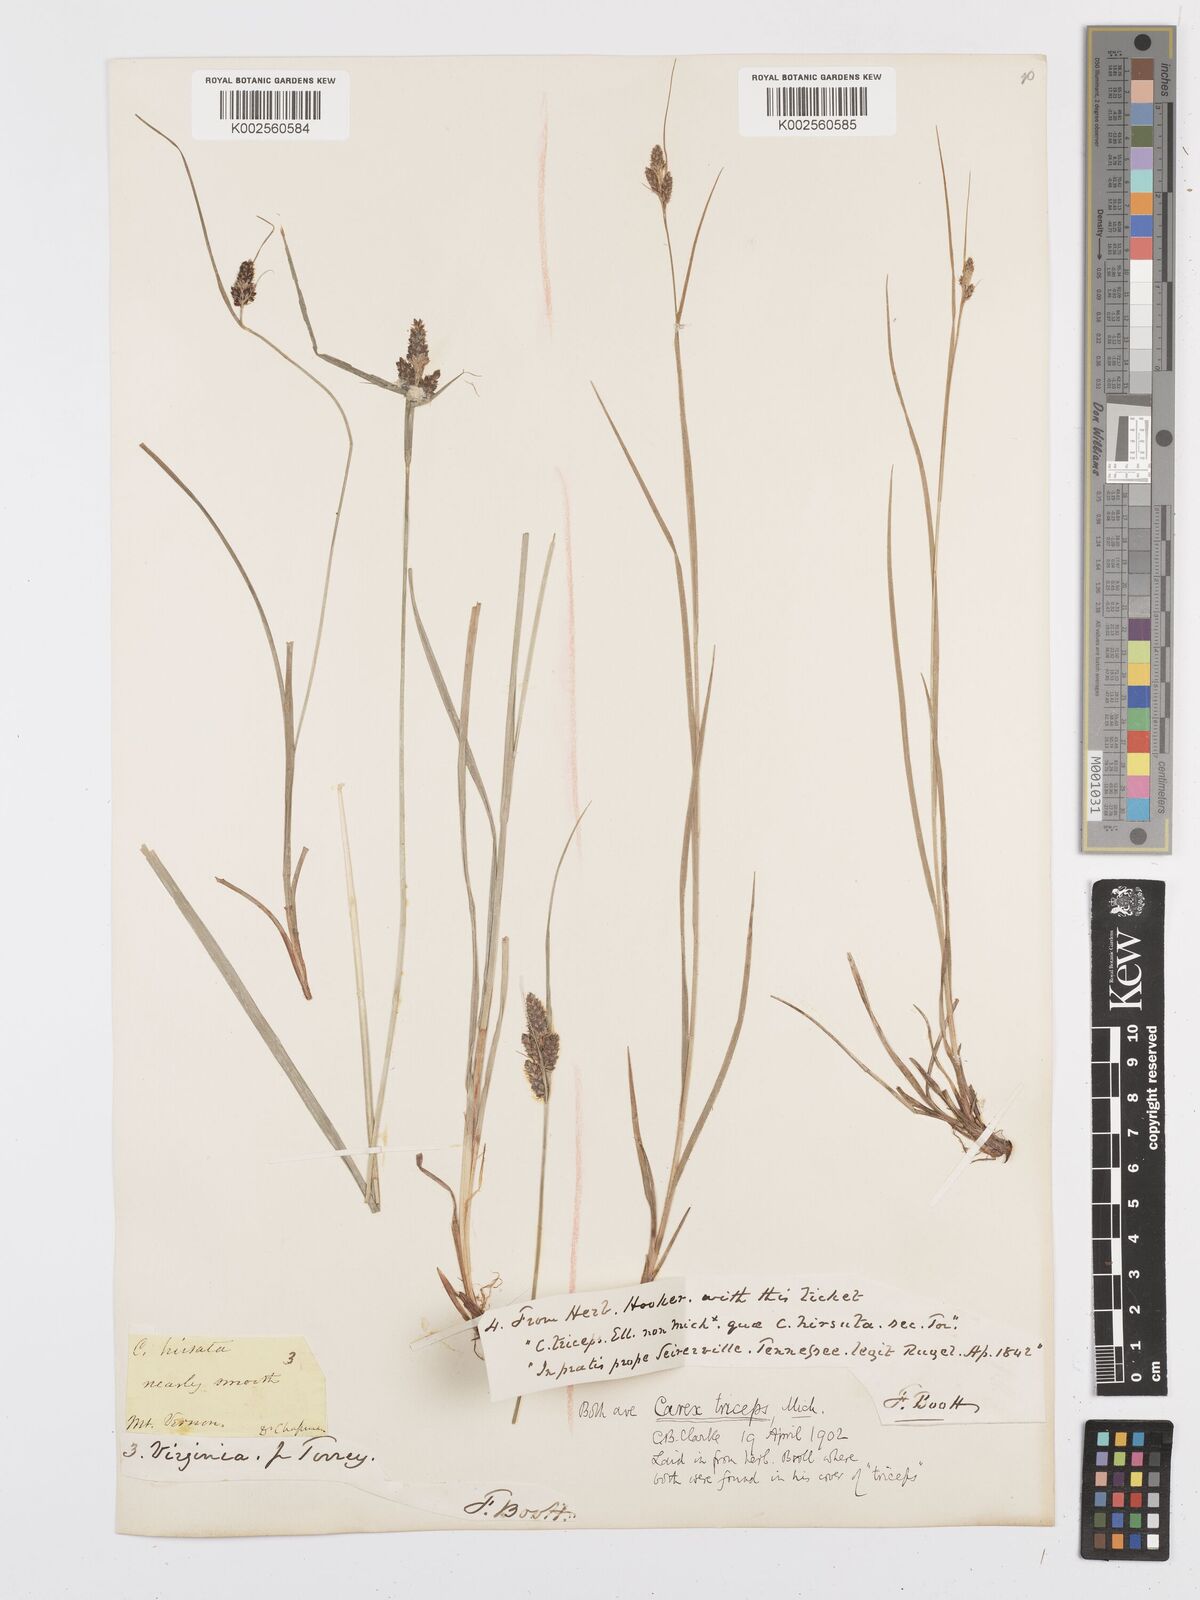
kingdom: Plantae
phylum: Tracheophyta
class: Liliopsida
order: Poales
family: Cyperaceae
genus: Carex
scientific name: Carex complanata
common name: Hirsute sedge
